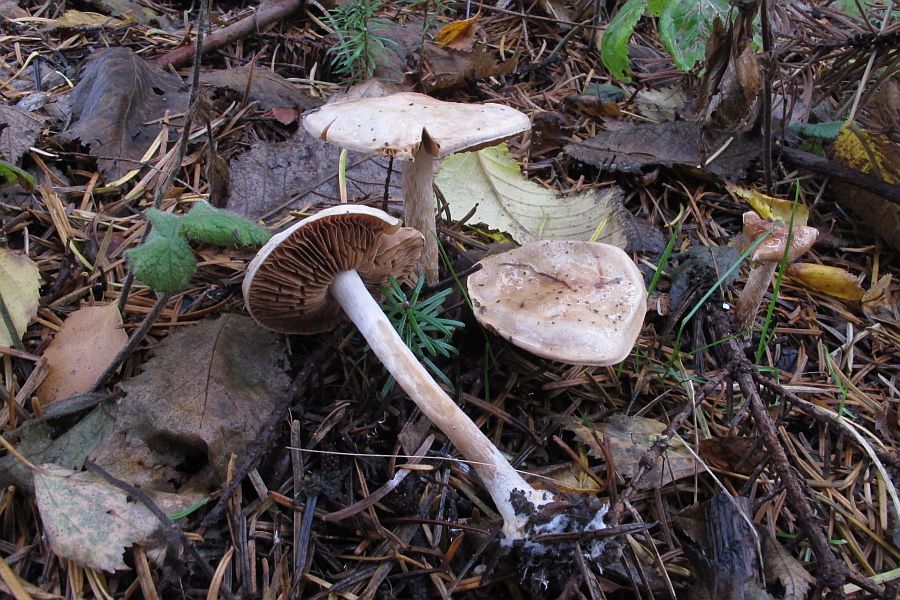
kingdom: Fungi
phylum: Basidiomycota
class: Agaricomycetes
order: Agaricales
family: Hymenogastraceae
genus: Hebeloma
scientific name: Hebeloma leucosarx
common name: højstokket tåreblad
